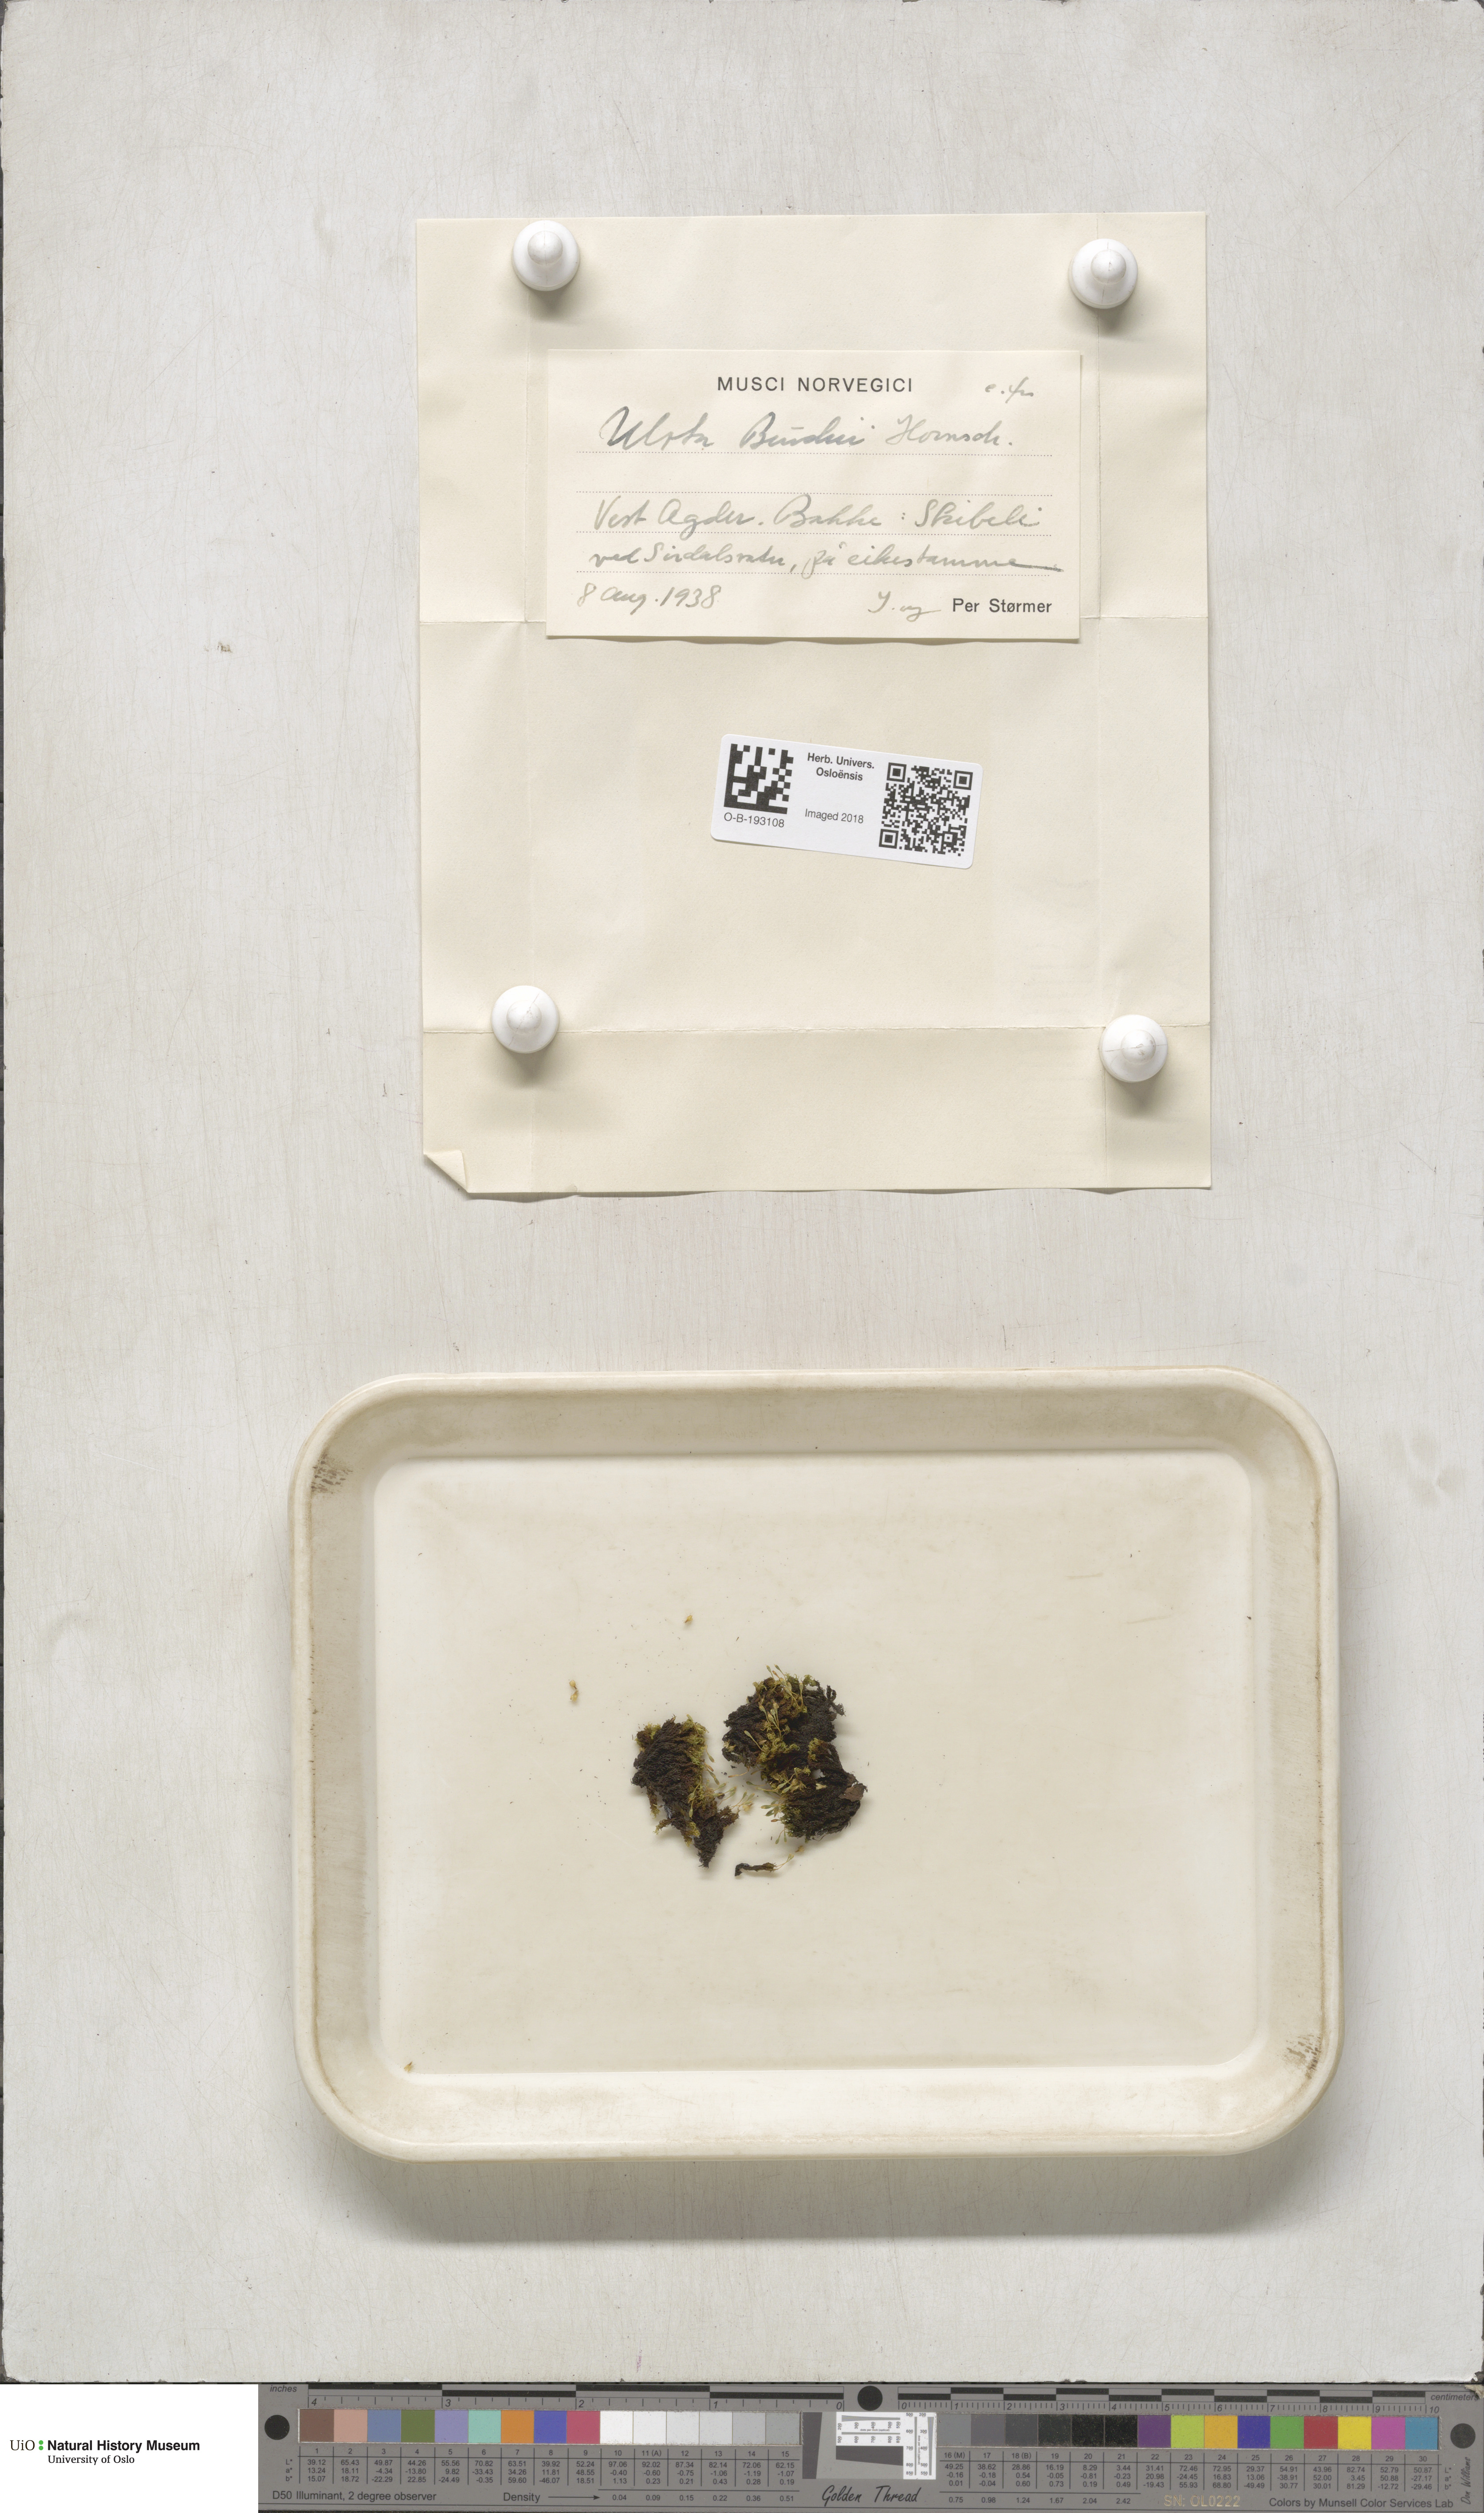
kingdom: Plantae
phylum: Bryophyta
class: Bryopsida
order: Orthotrichales
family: Orthotrichaceae
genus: Ulota
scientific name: Ulota bruchii
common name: Bruch's pincushion
